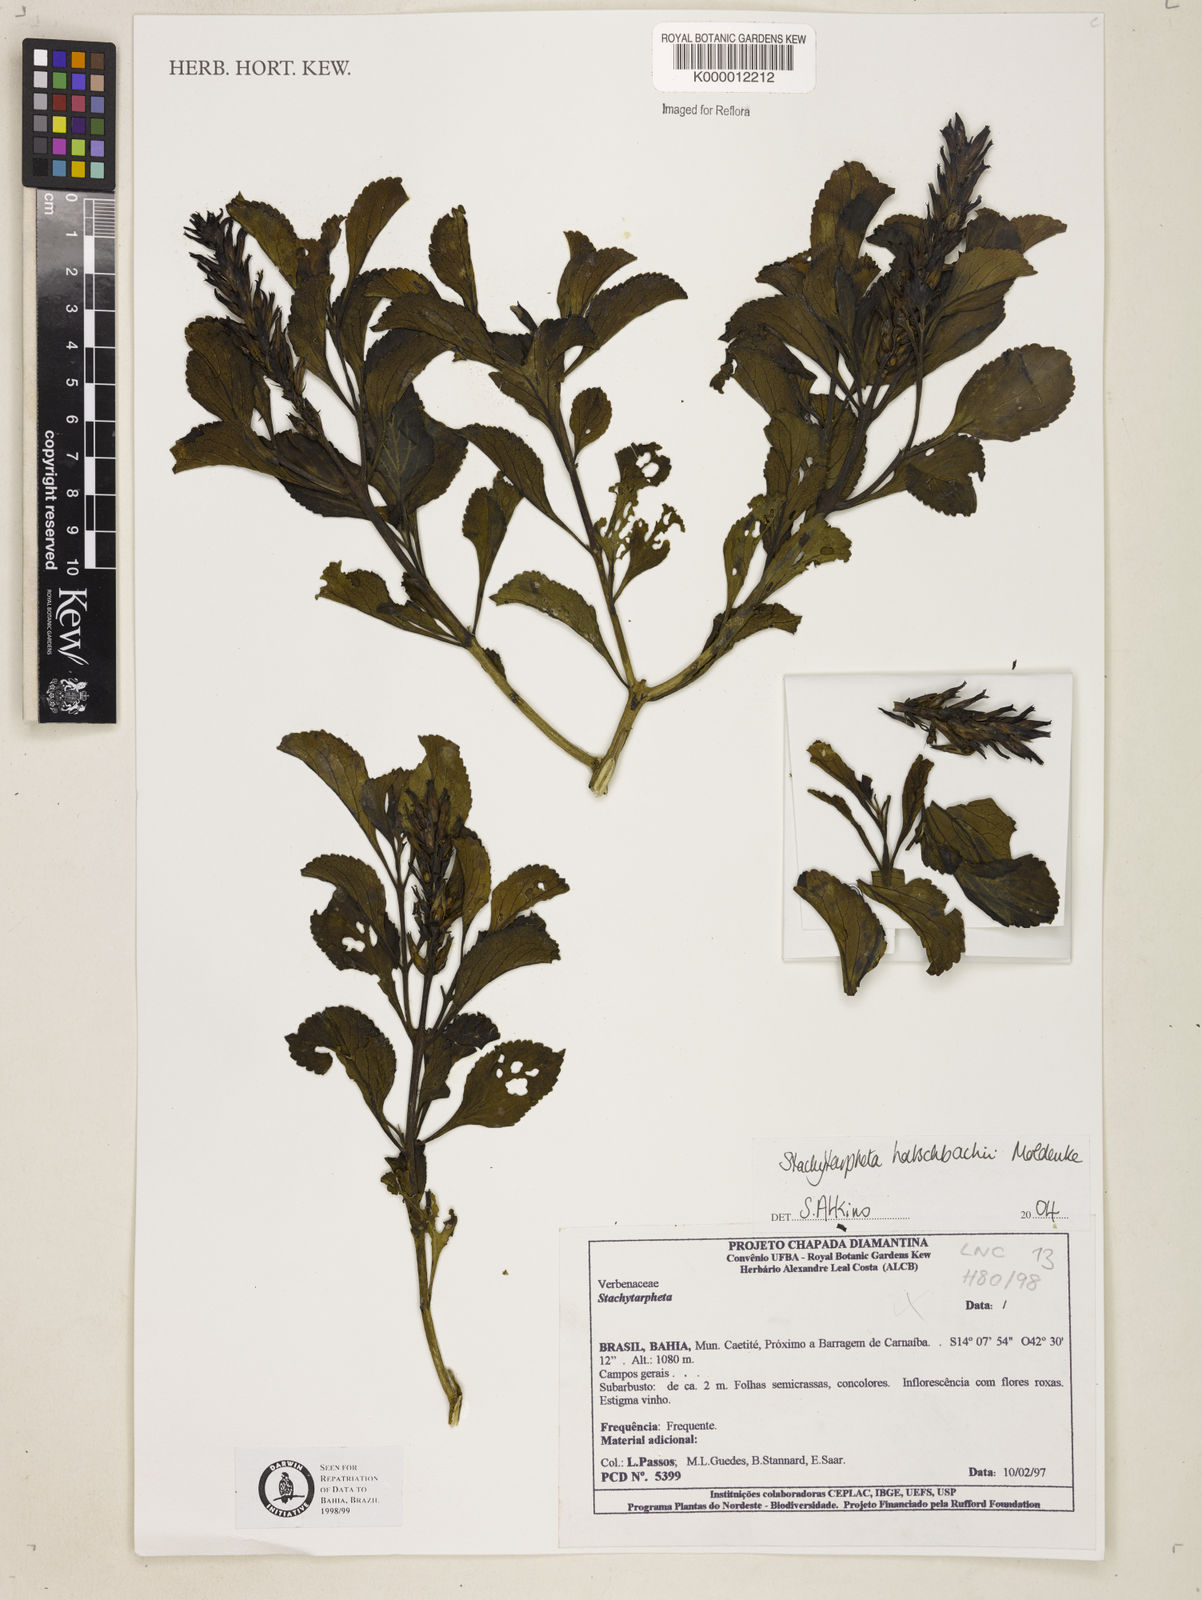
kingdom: Plantae
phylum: Tracheophyta
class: Magnoliopsida
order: Lamiales
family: Verbenaceae
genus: Stachytarpheta
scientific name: Stachytarpheta martiana
